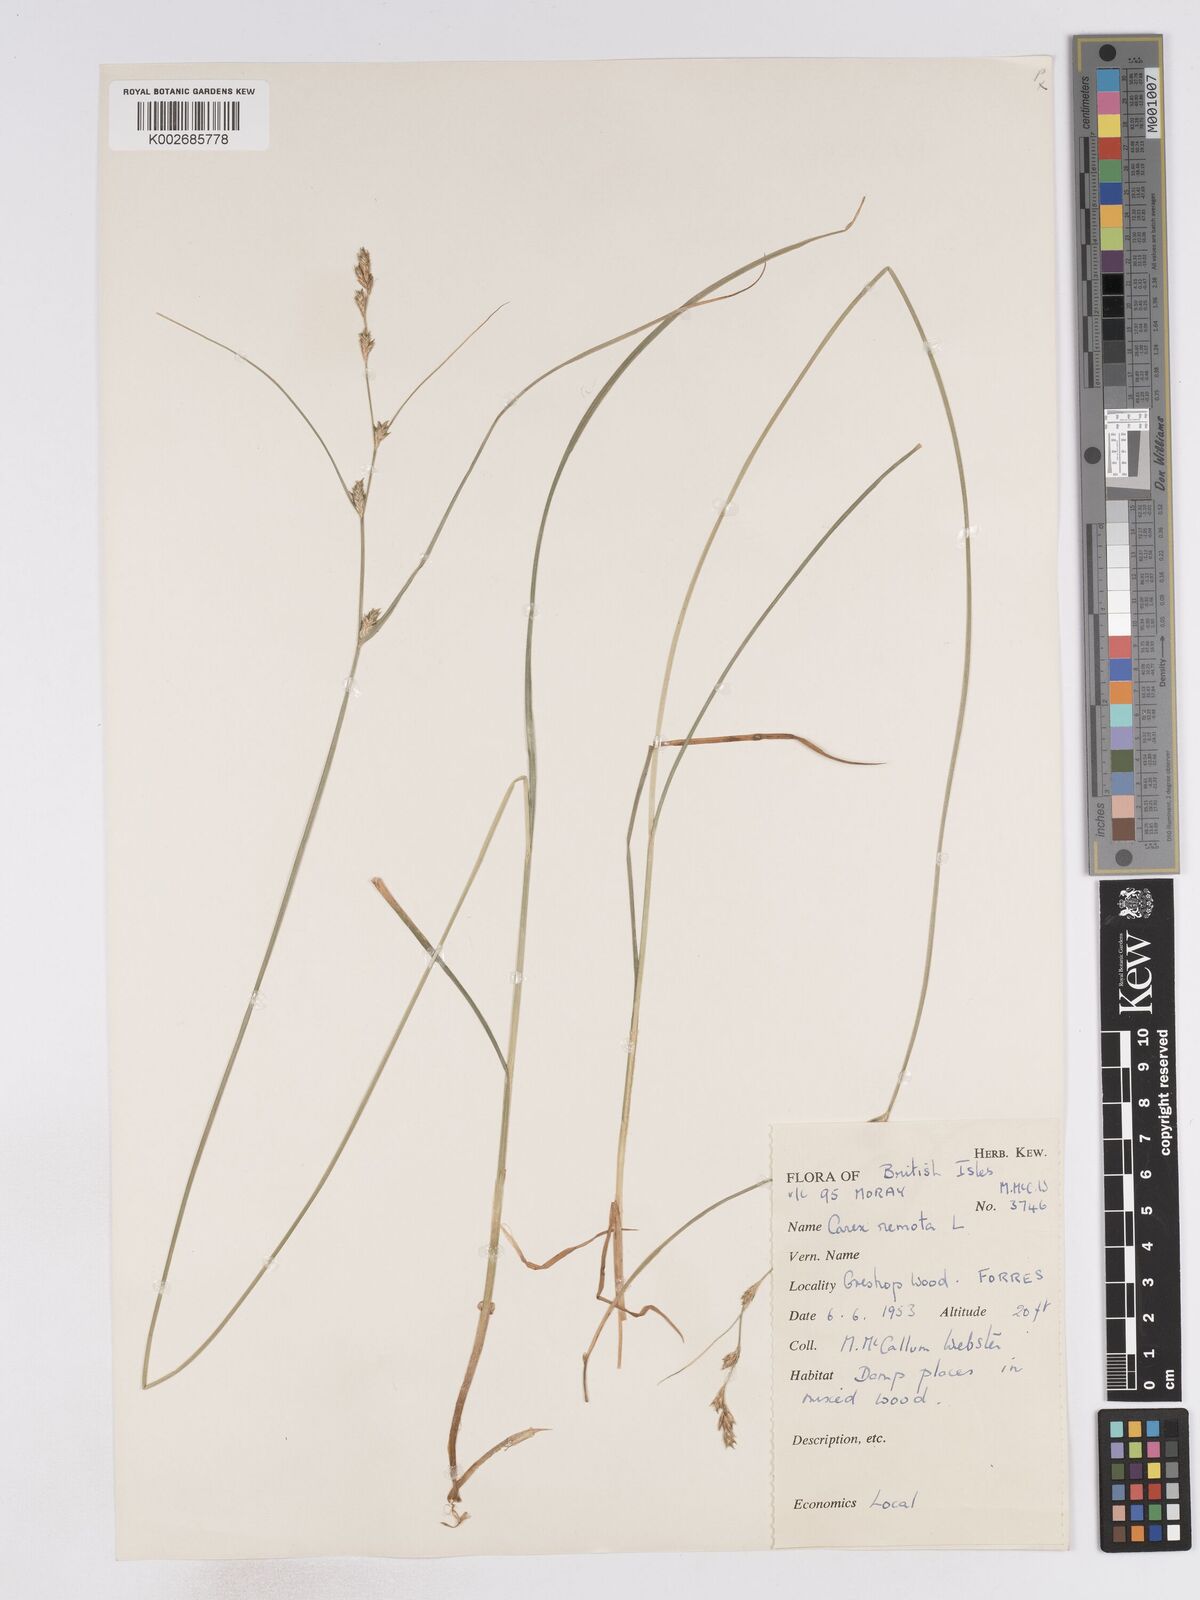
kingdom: Plantae
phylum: Tracheophyta
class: Liliopsida
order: Poales
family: Cyperaceae
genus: Carex
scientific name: Carex remota
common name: Remote sedge
